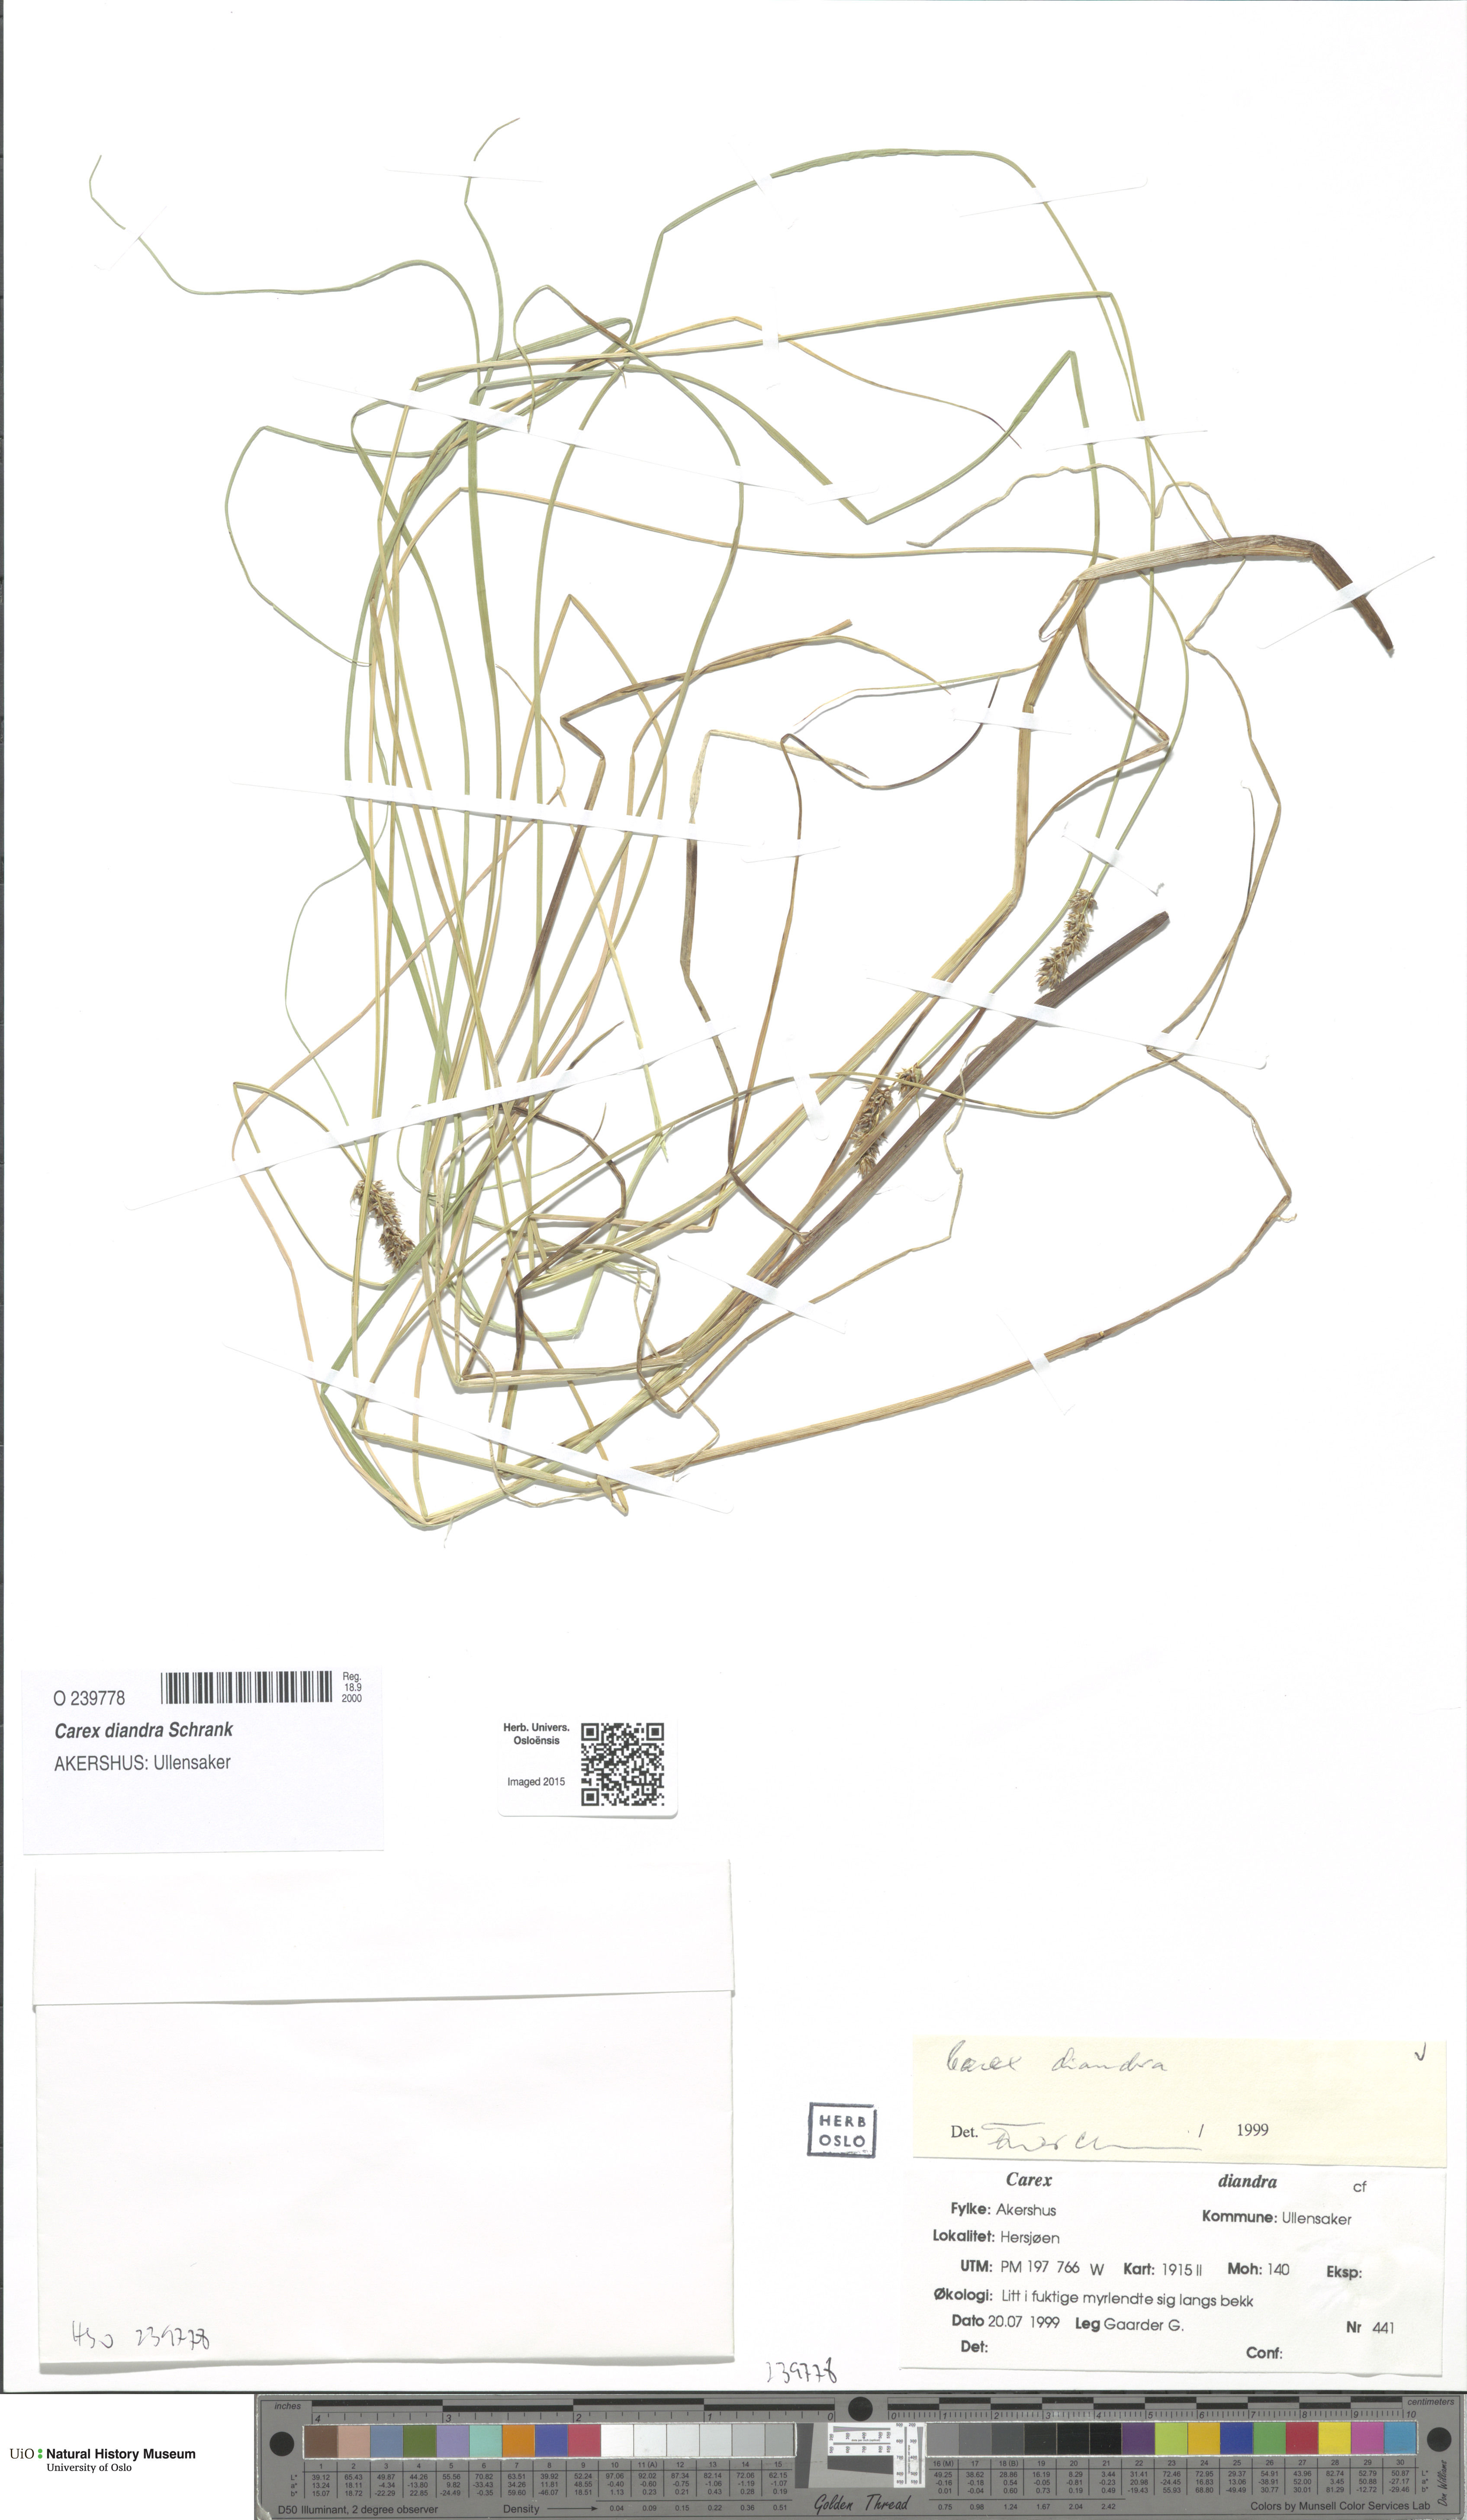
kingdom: Plantae
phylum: Tracheophyta
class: Liliopsida
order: Poales
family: Cyperaceae
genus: Carex
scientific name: Carex diandra
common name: Lesser tussock-sedge
